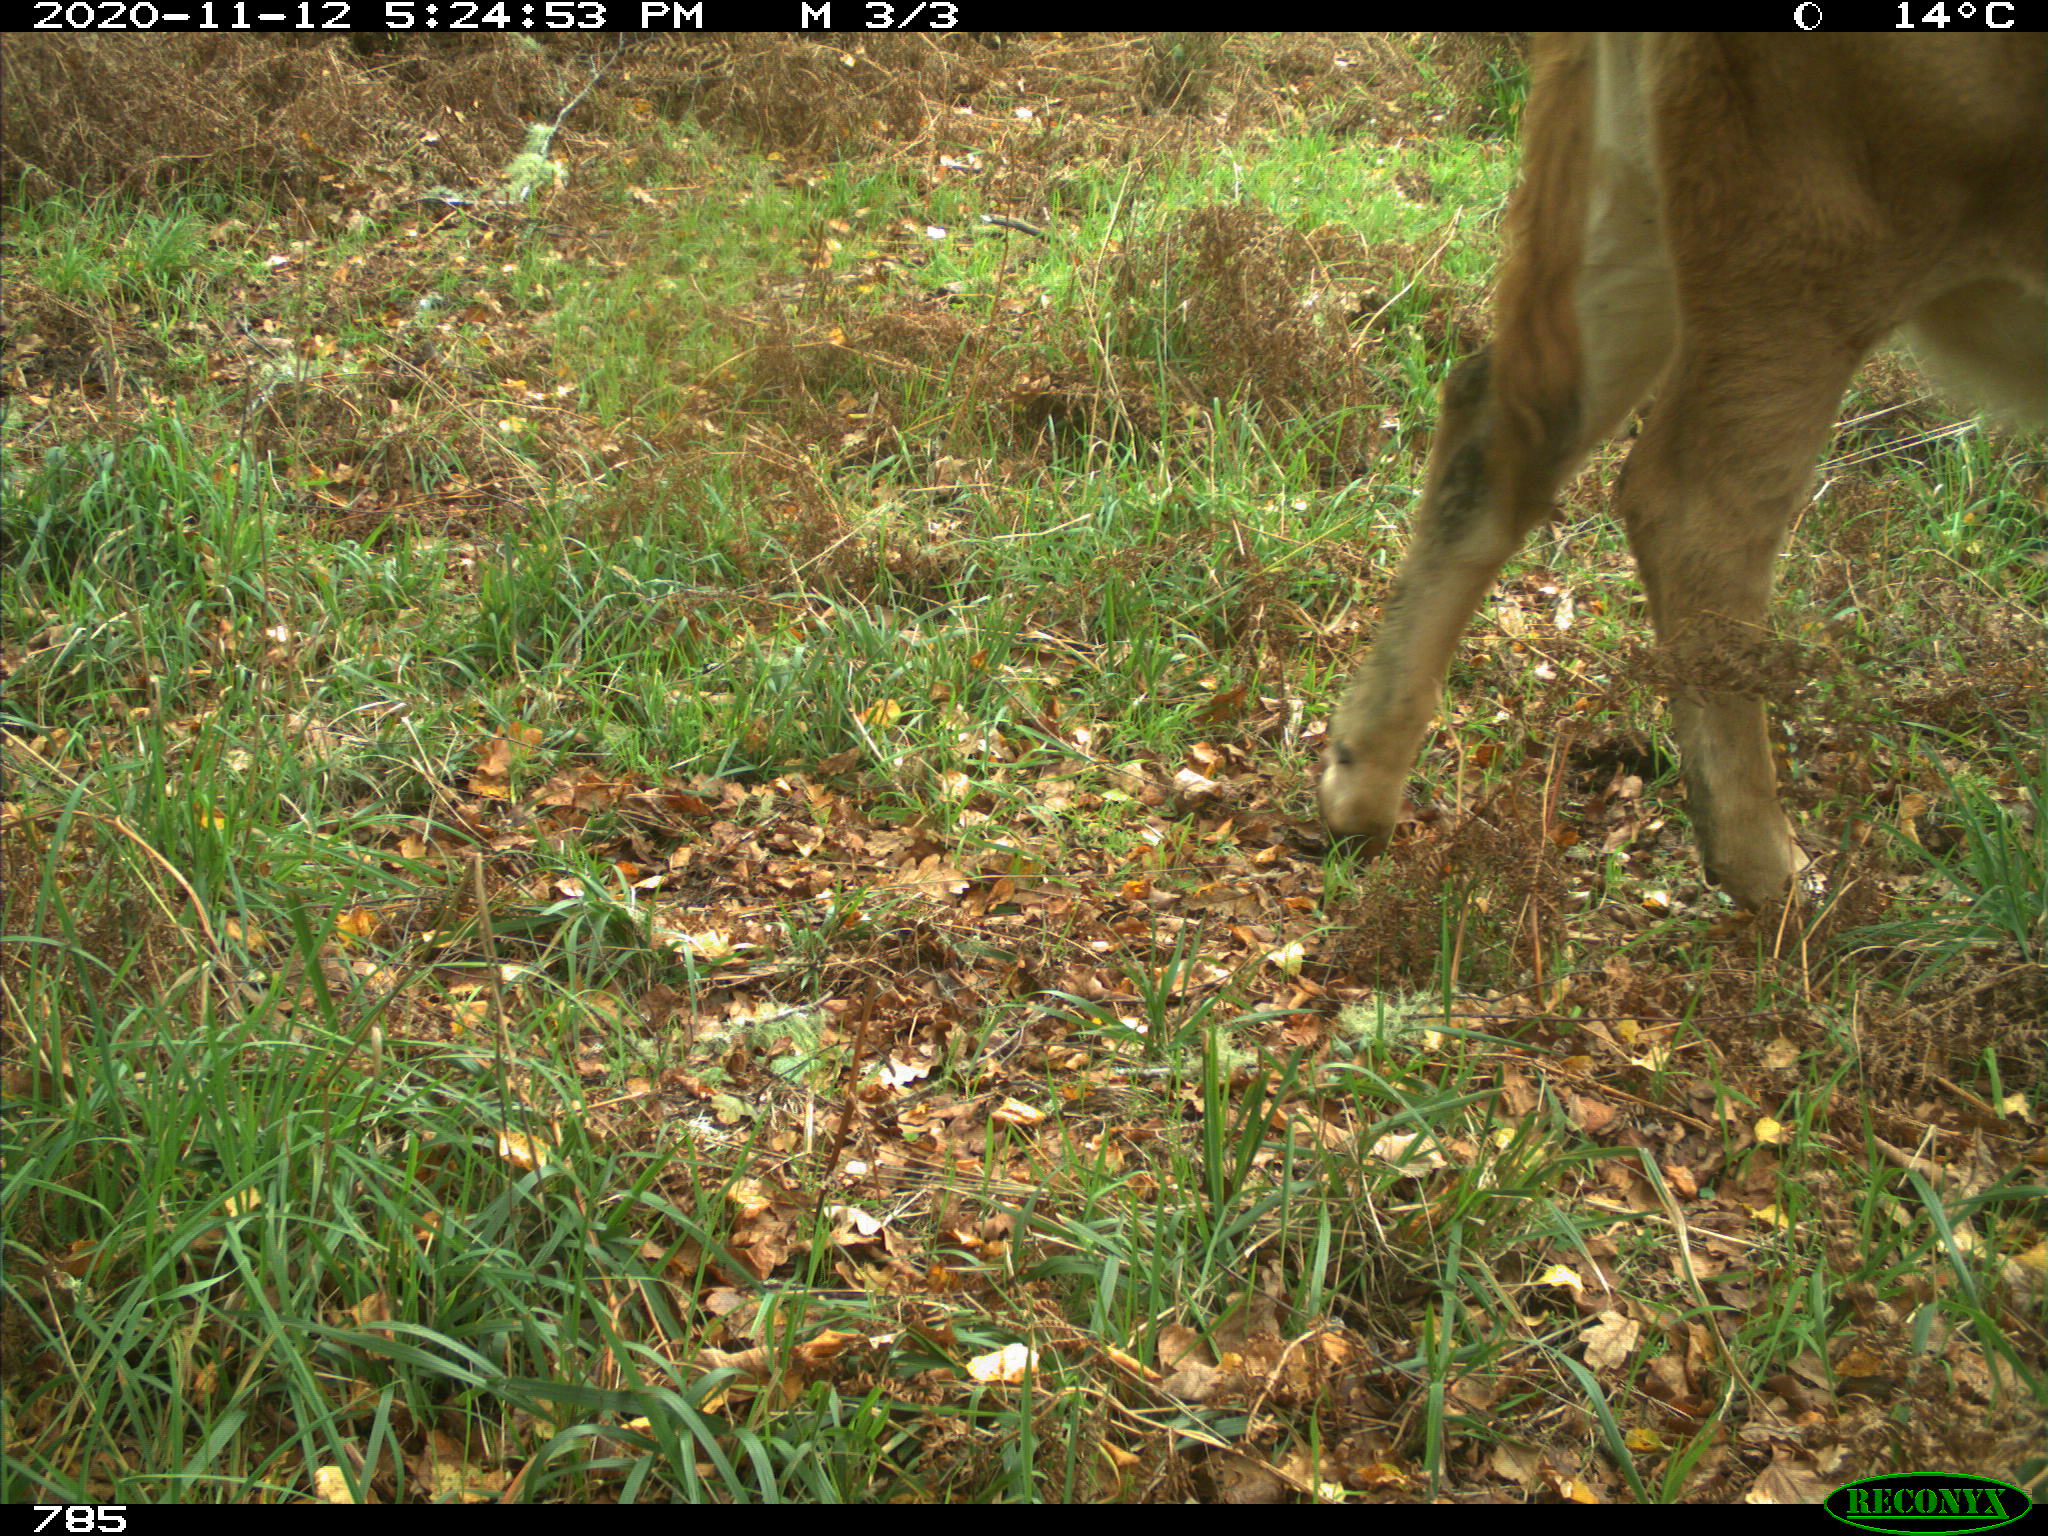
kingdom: Animalia
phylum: Chordata
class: Mammalia
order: Artiodactyla
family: Bovidae
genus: Bos
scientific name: Bos taurus
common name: Domesticated cattle
